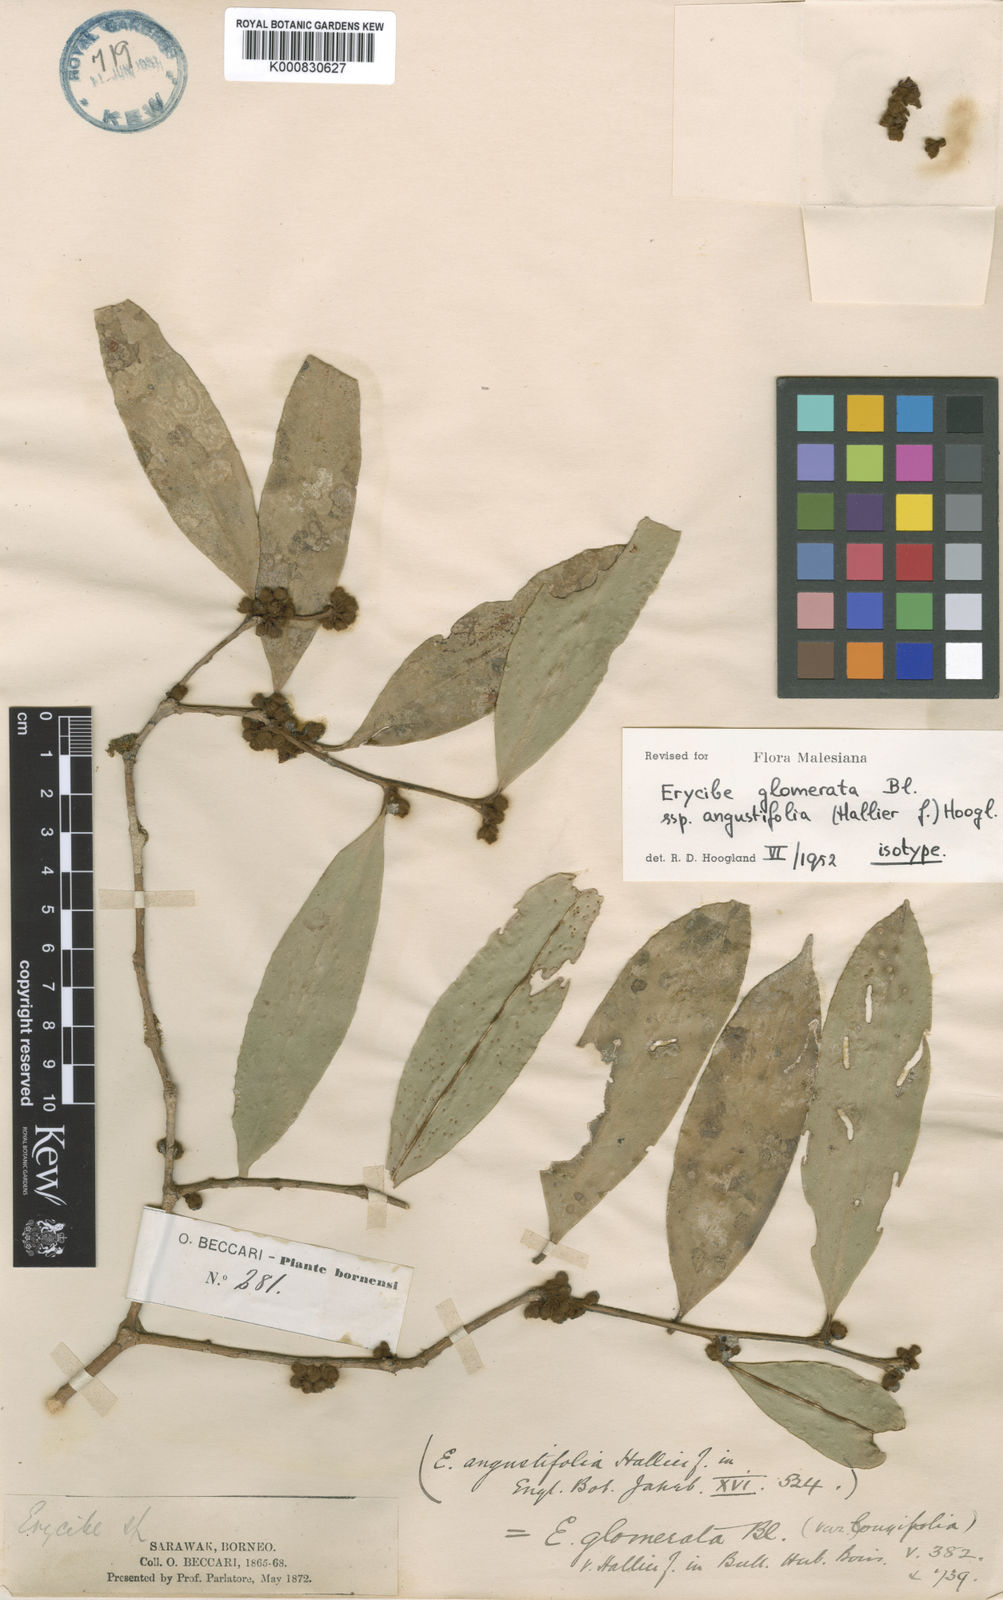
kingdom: Plantae
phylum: Tracheophyta
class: Magnoliopsida
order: Solanales
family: Convolvulaceae
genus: Erycibe
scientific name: Erycibe glomerata
